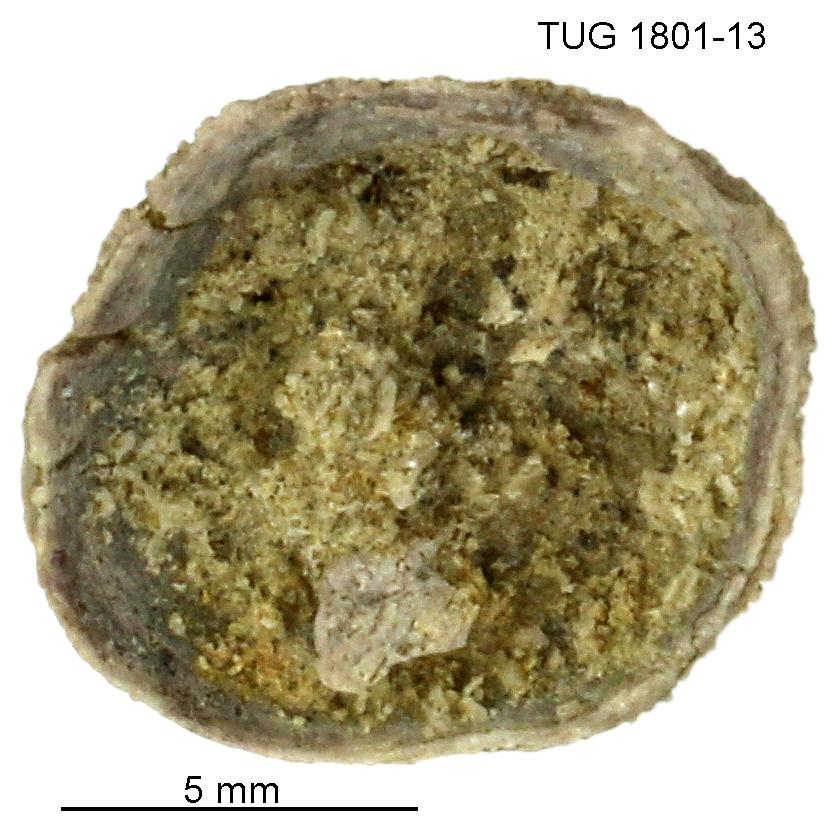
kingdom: Animalia
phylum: Brachiopoda
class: Craniata
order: Craniida
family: Craniidae
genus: Philhedra
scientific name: Philhedra
